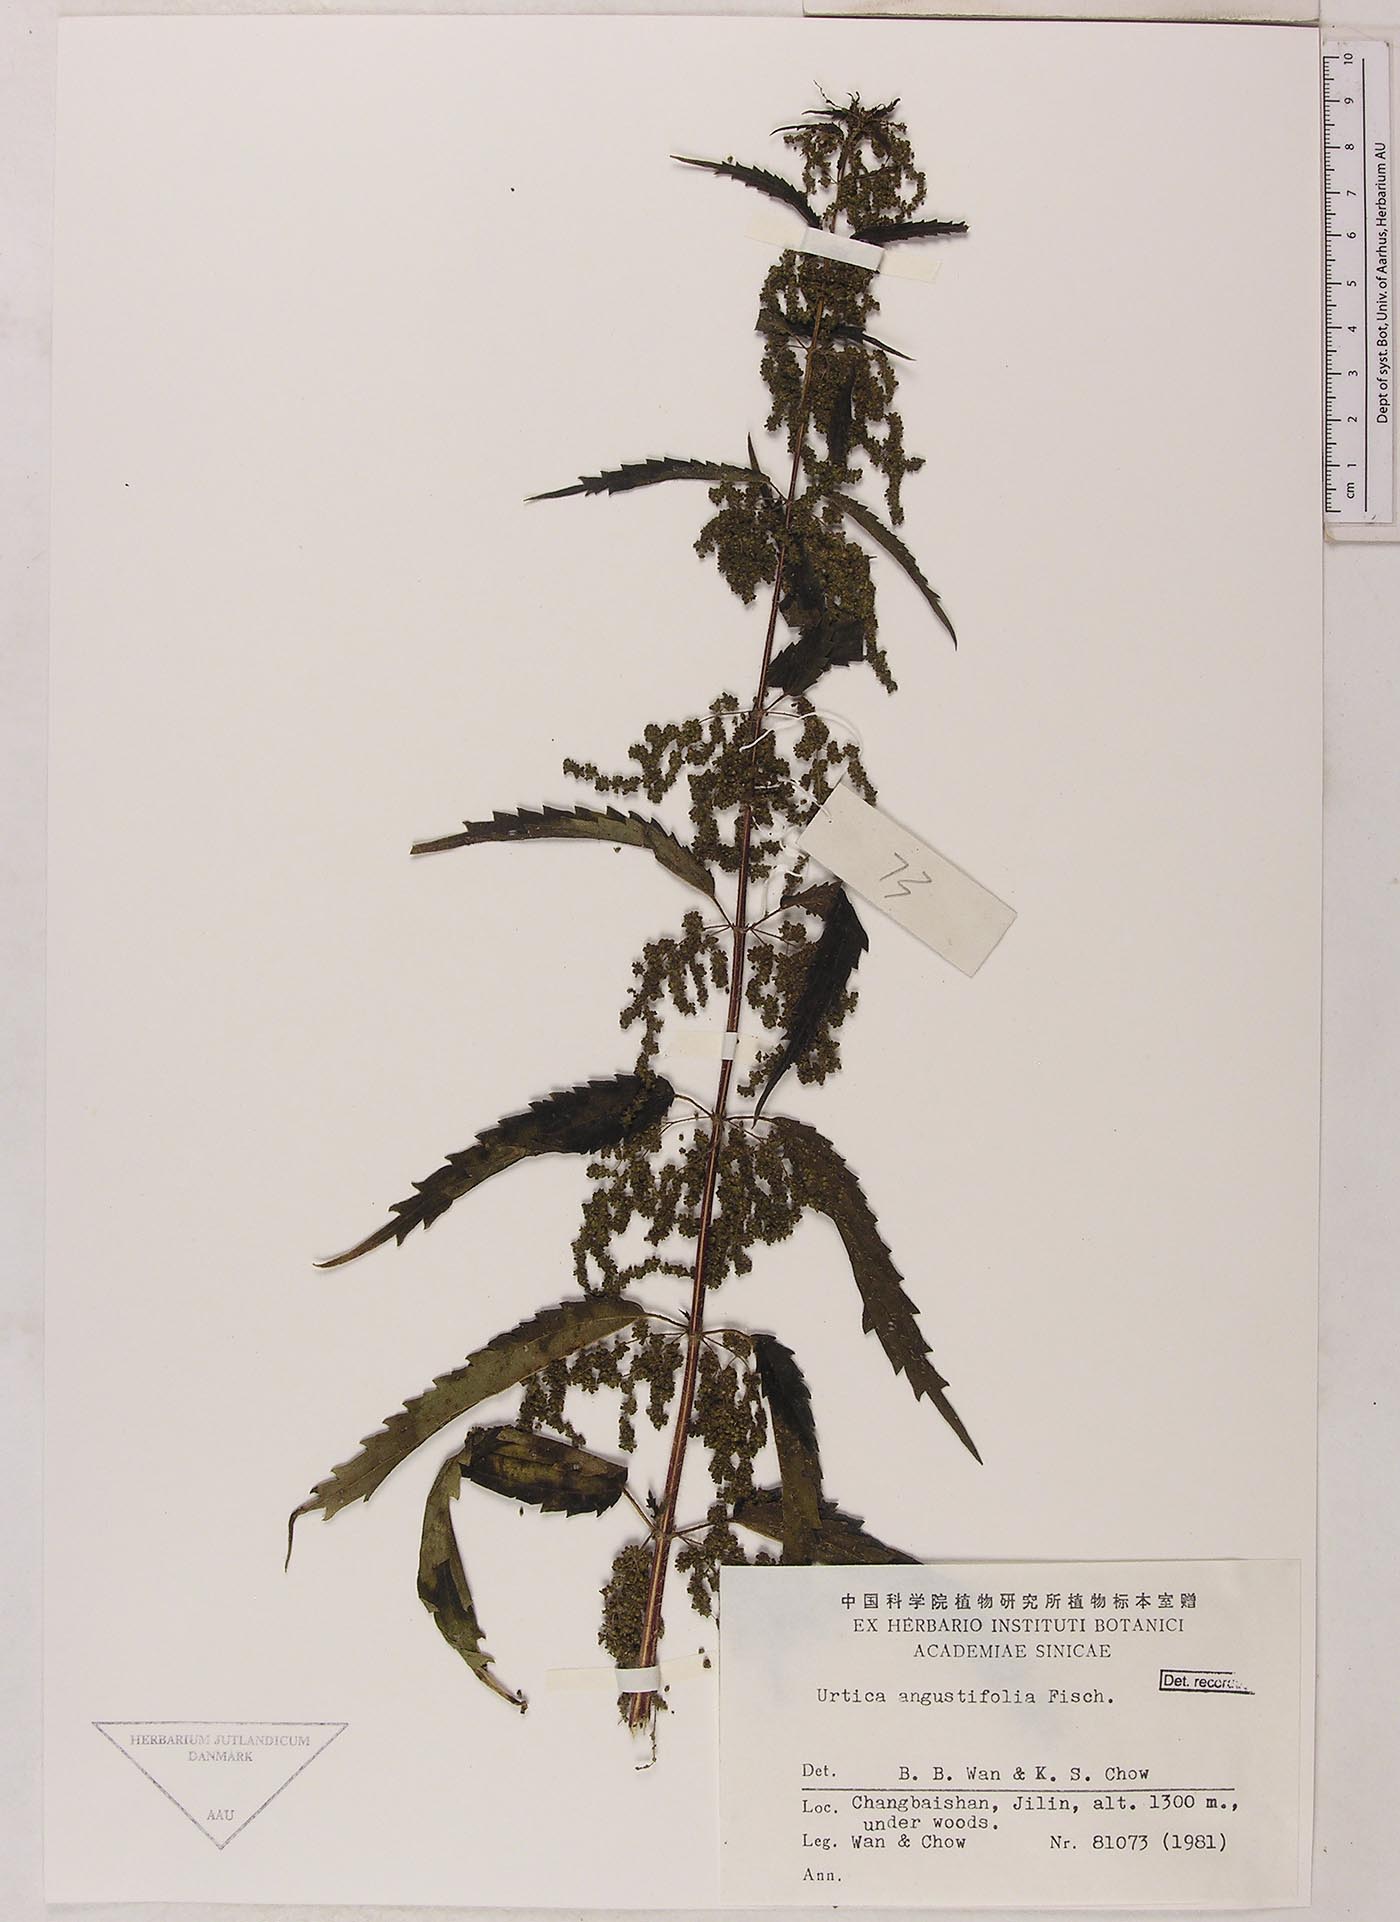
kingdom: Plantae
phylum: Tracheophyta
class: Magnoliopsida
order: Rosales
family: Urticaceae
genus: Urtica
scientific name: Urtica dioica
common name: Common nettle
